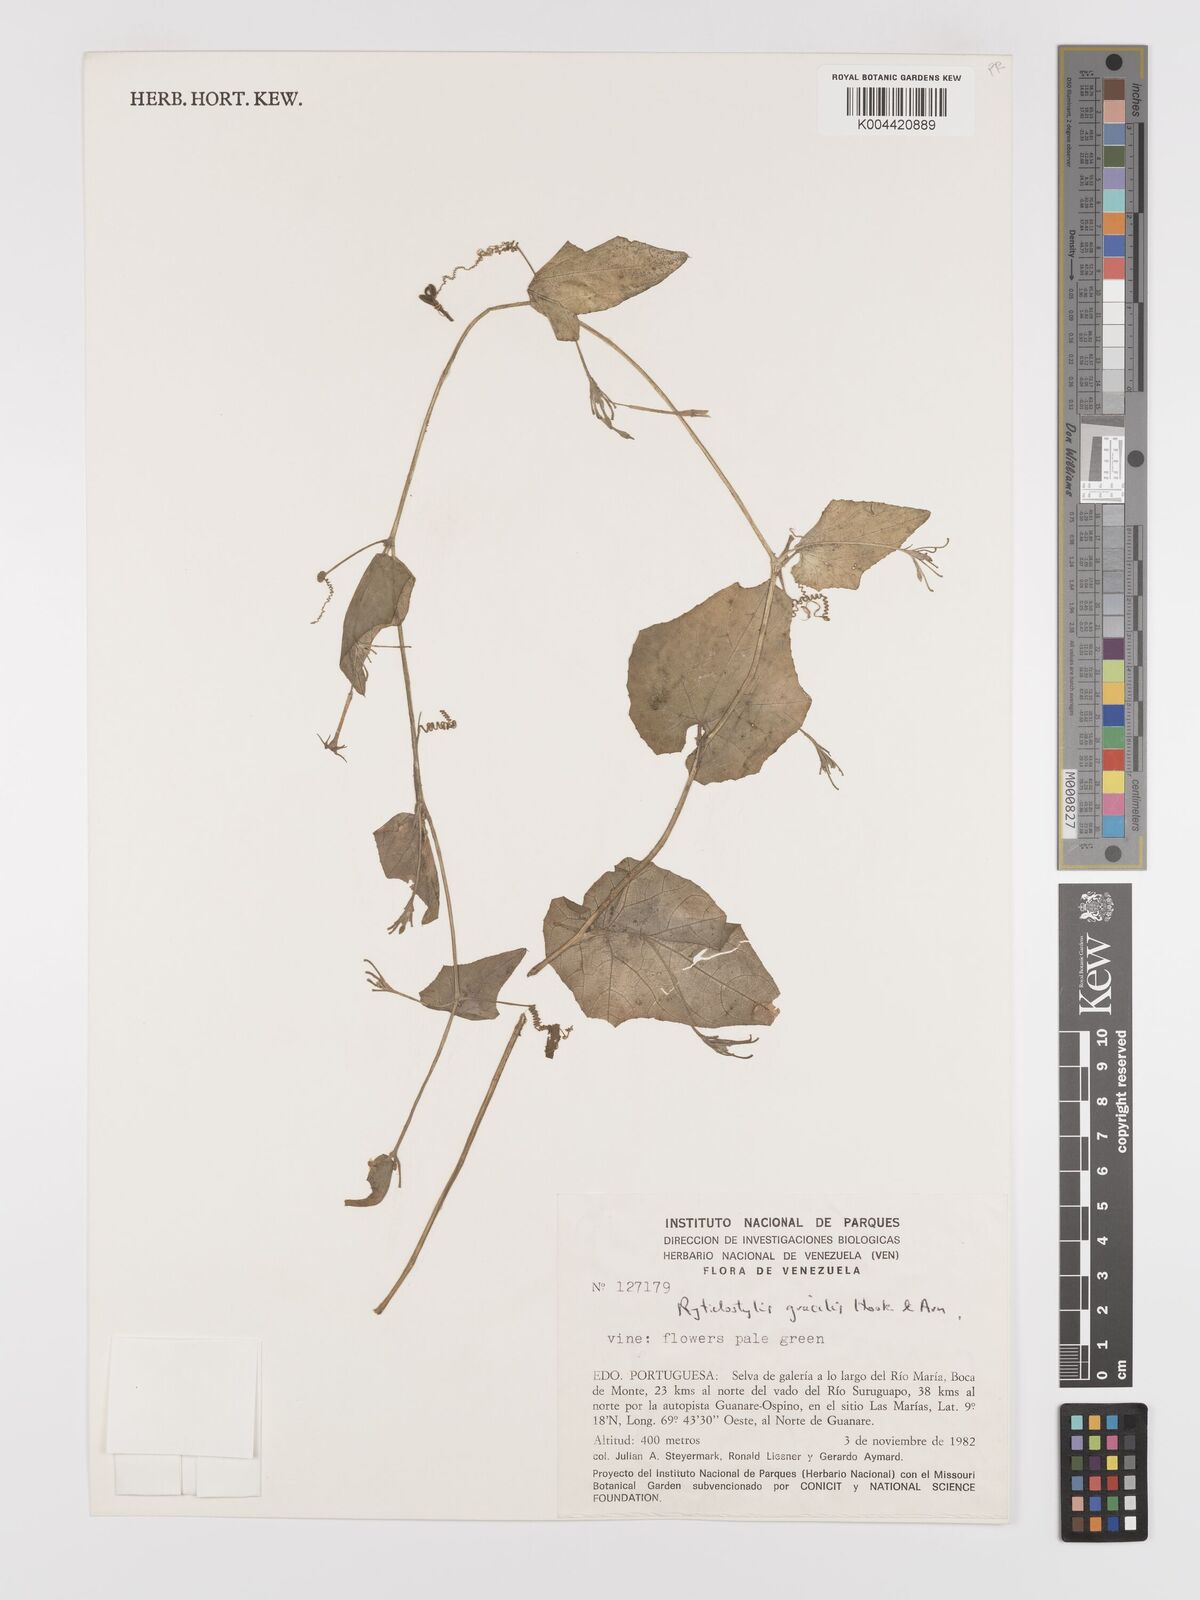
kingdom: Plantae
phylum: Tracheophyta
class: Magnoliopsida
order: Cucurbitales
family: Cucurbitaceae
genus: Cyclanthera
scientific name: Cyclanthera filiformis
